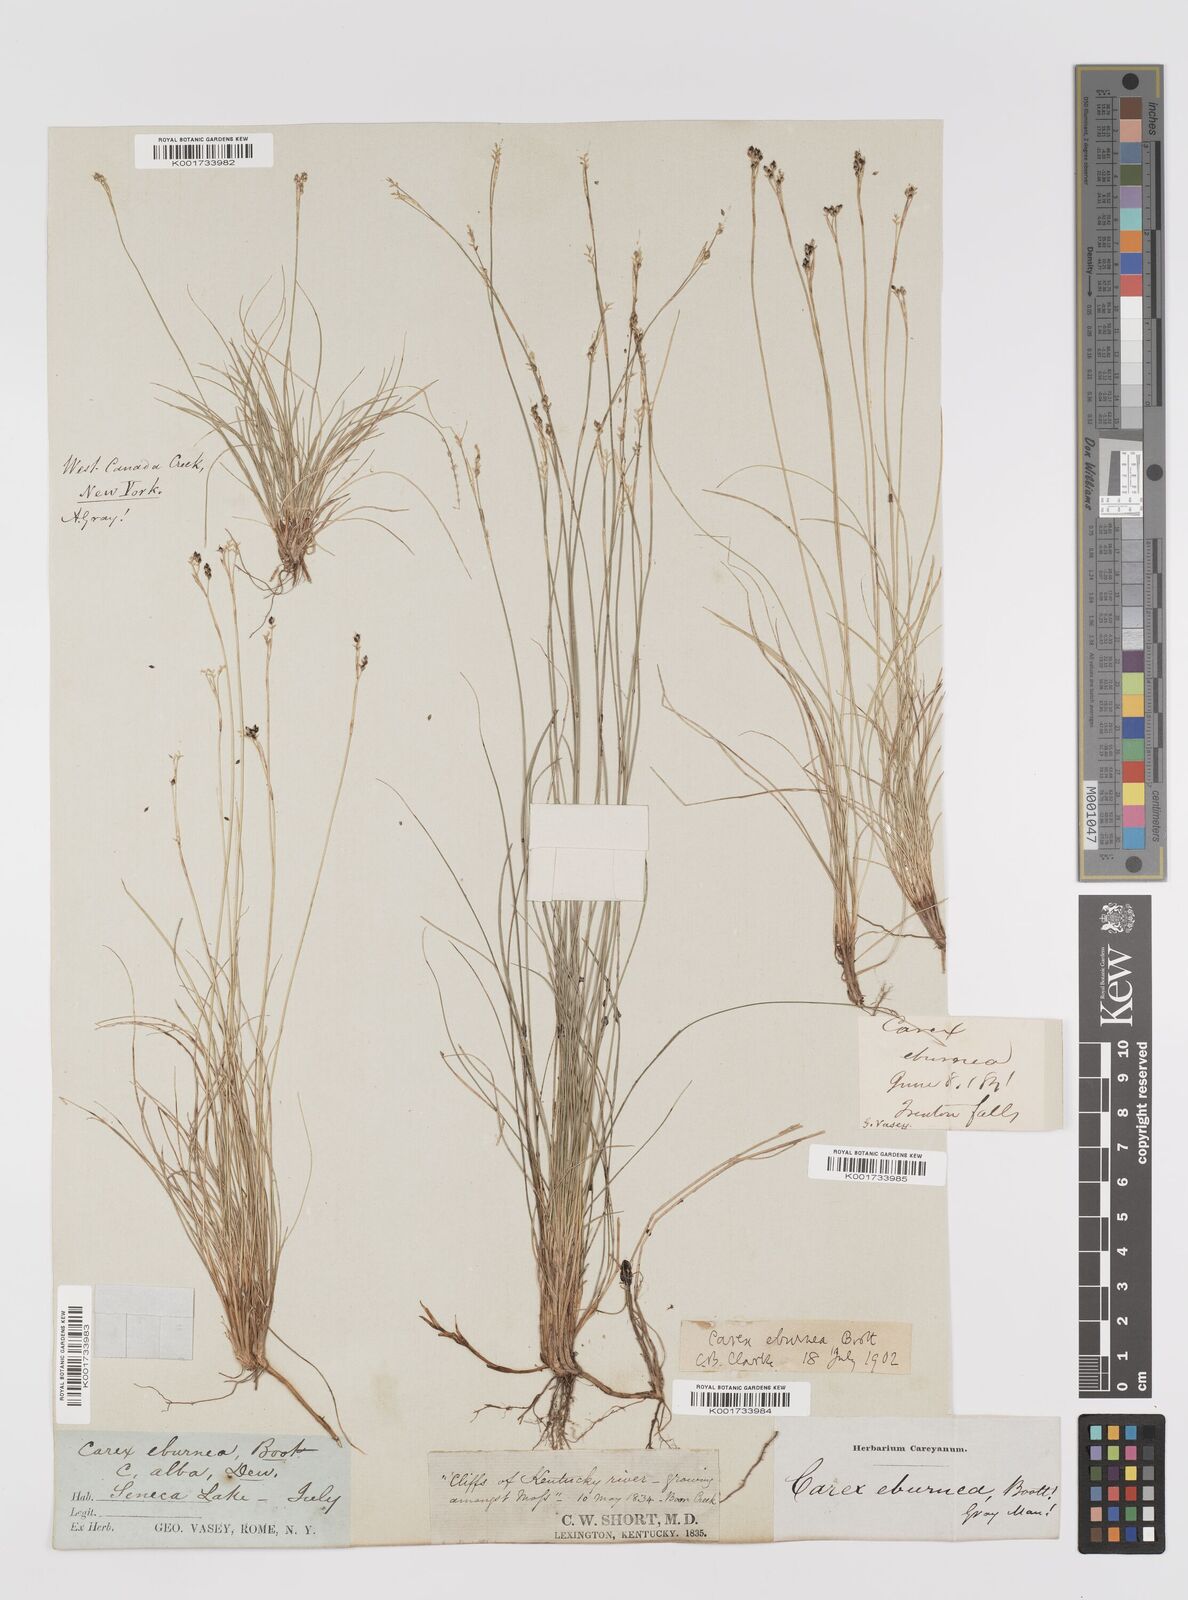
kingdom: Plantae
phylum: Tracheophyta
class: Liliopsida
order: Poales
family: Cyperaceae
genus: Carex
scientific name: Carex eburnea
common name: Bristle-leaved sedge
